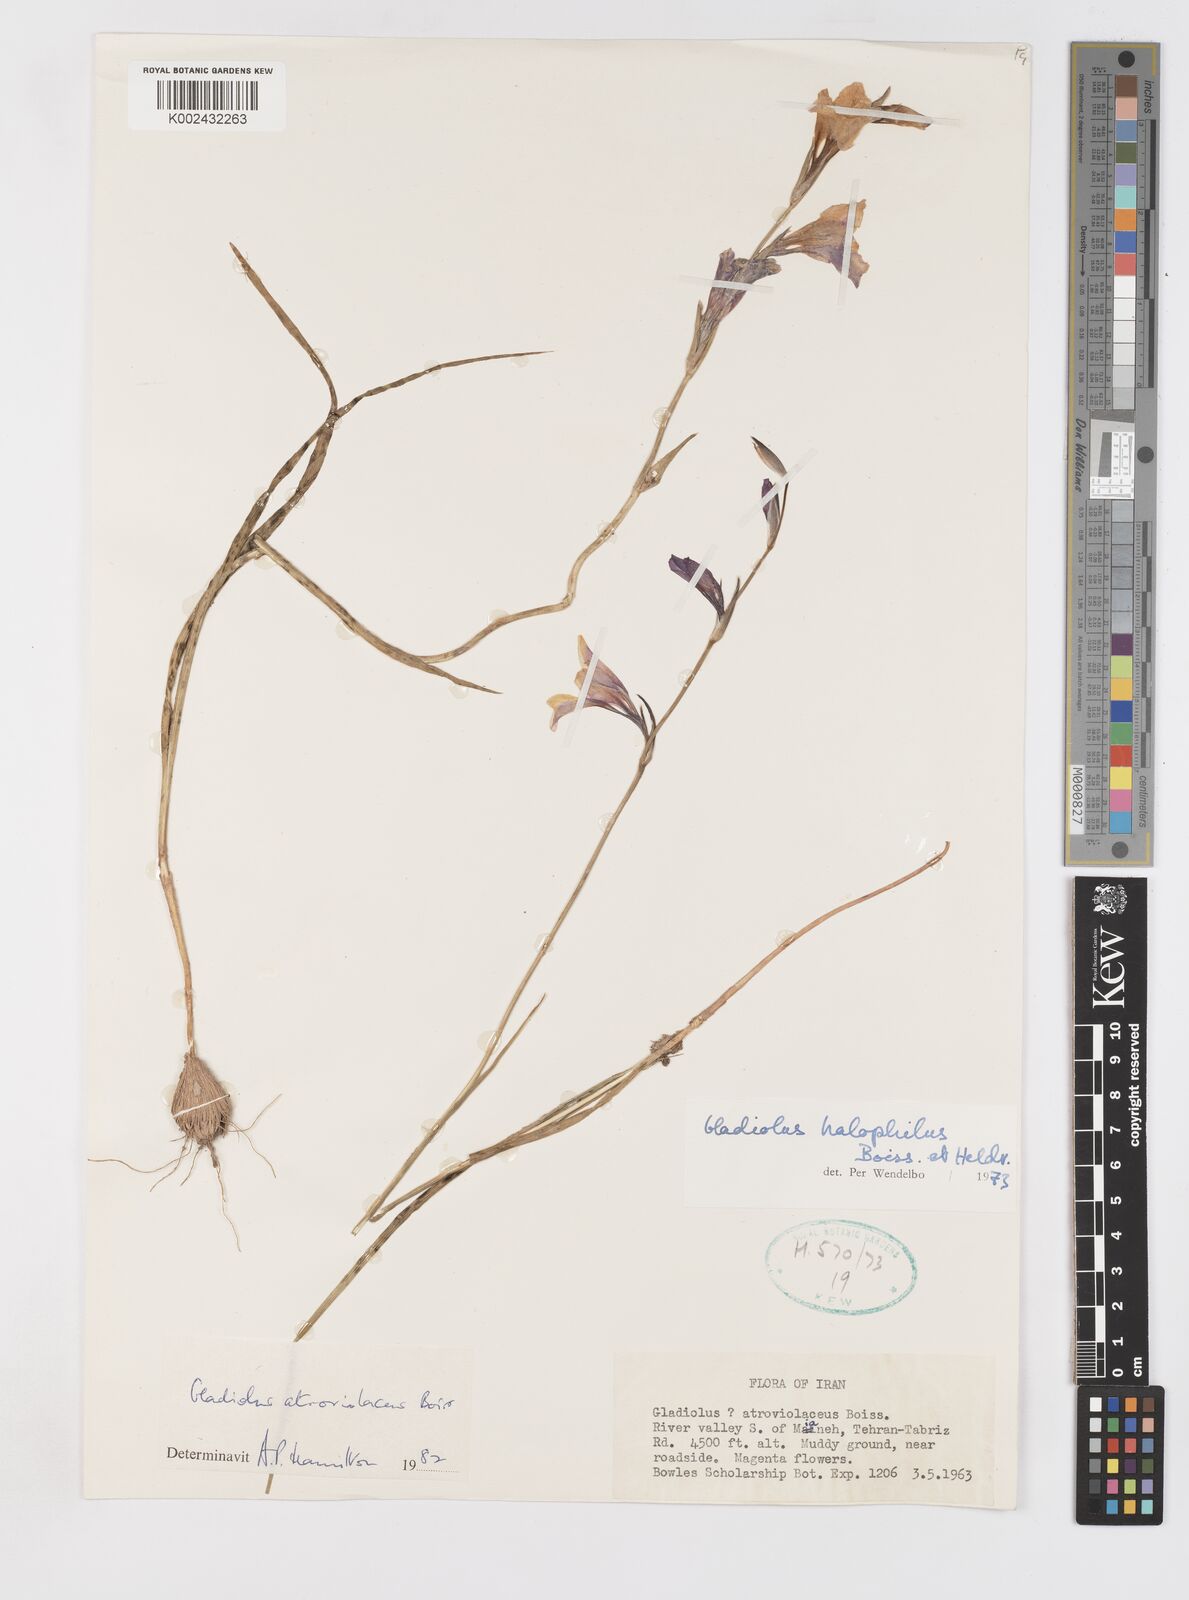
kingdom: Plantae
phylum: Tracheophyta
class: Liliopsida
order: Asparagales
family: Iridaceae
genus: Gladiolus
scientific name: Gladiolus atroviolaceus
